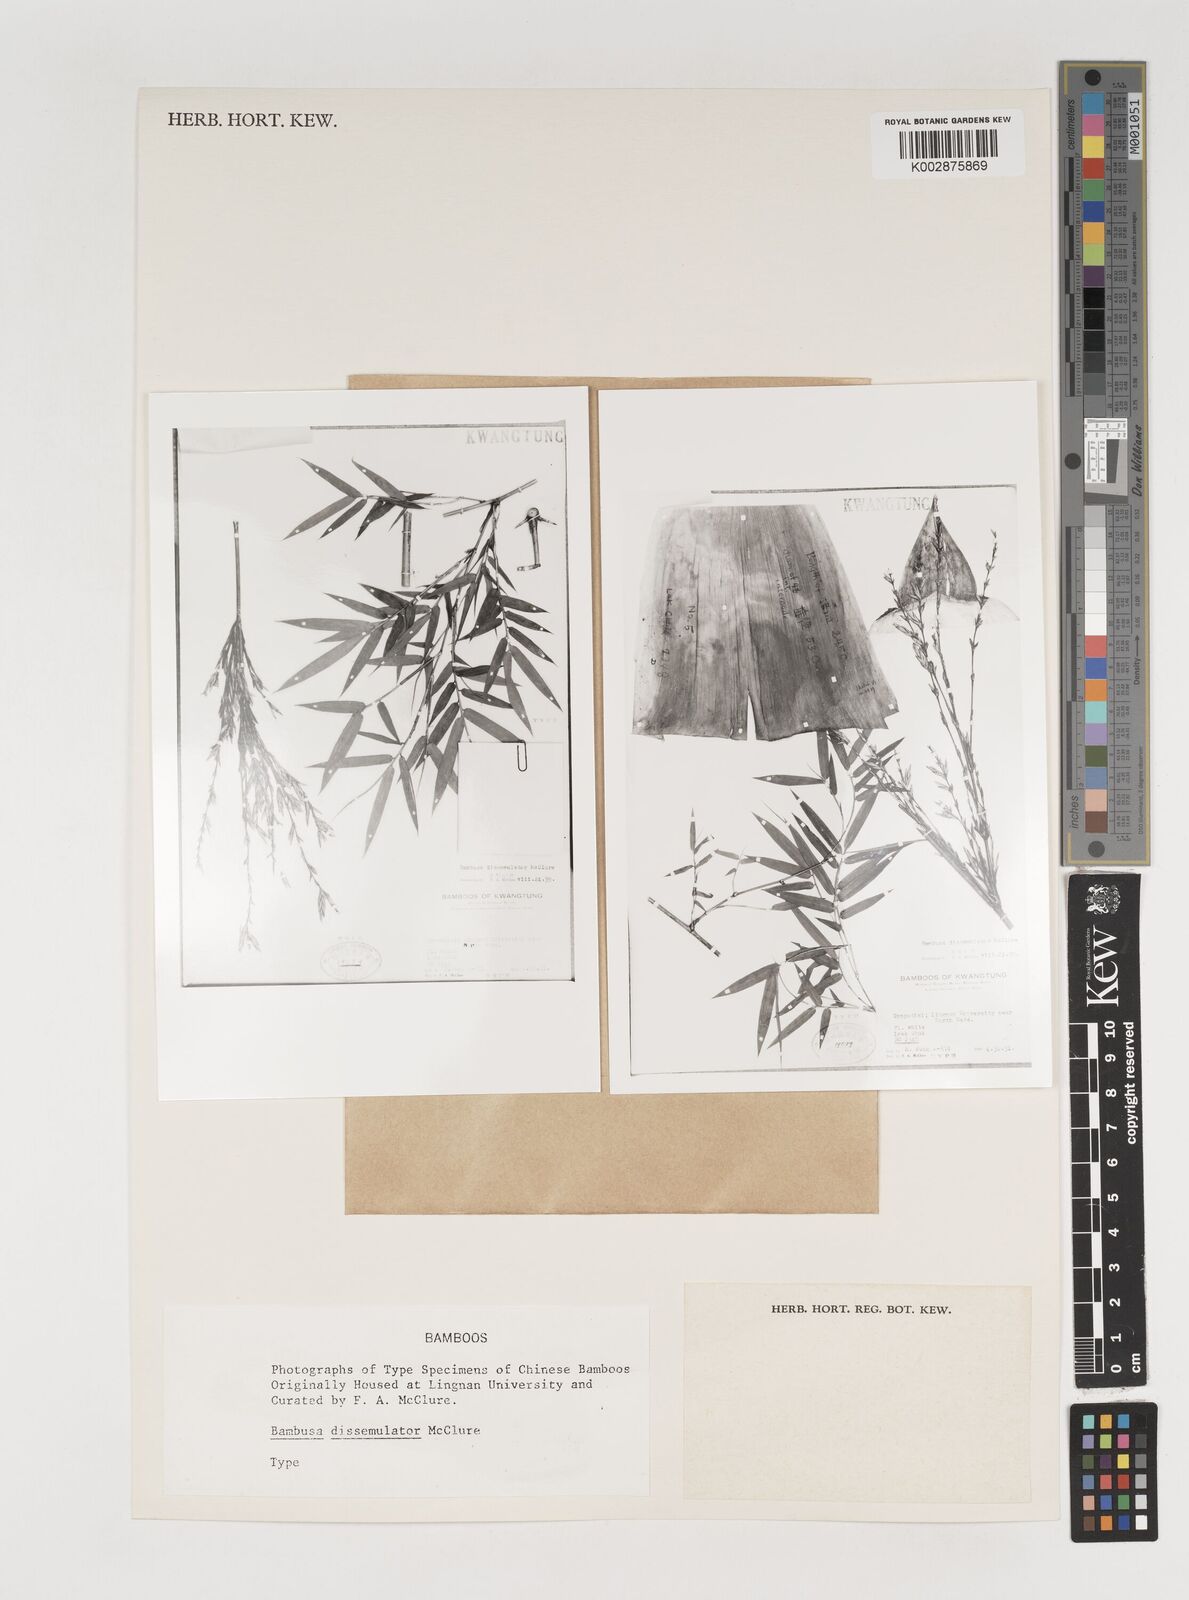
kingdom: Plantae
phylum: Tracheophyta
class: Liliopsida
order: Poales
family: Poaceae
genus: Bambusa
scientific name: Bambusa dissimulator
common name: Muddy bamboo
